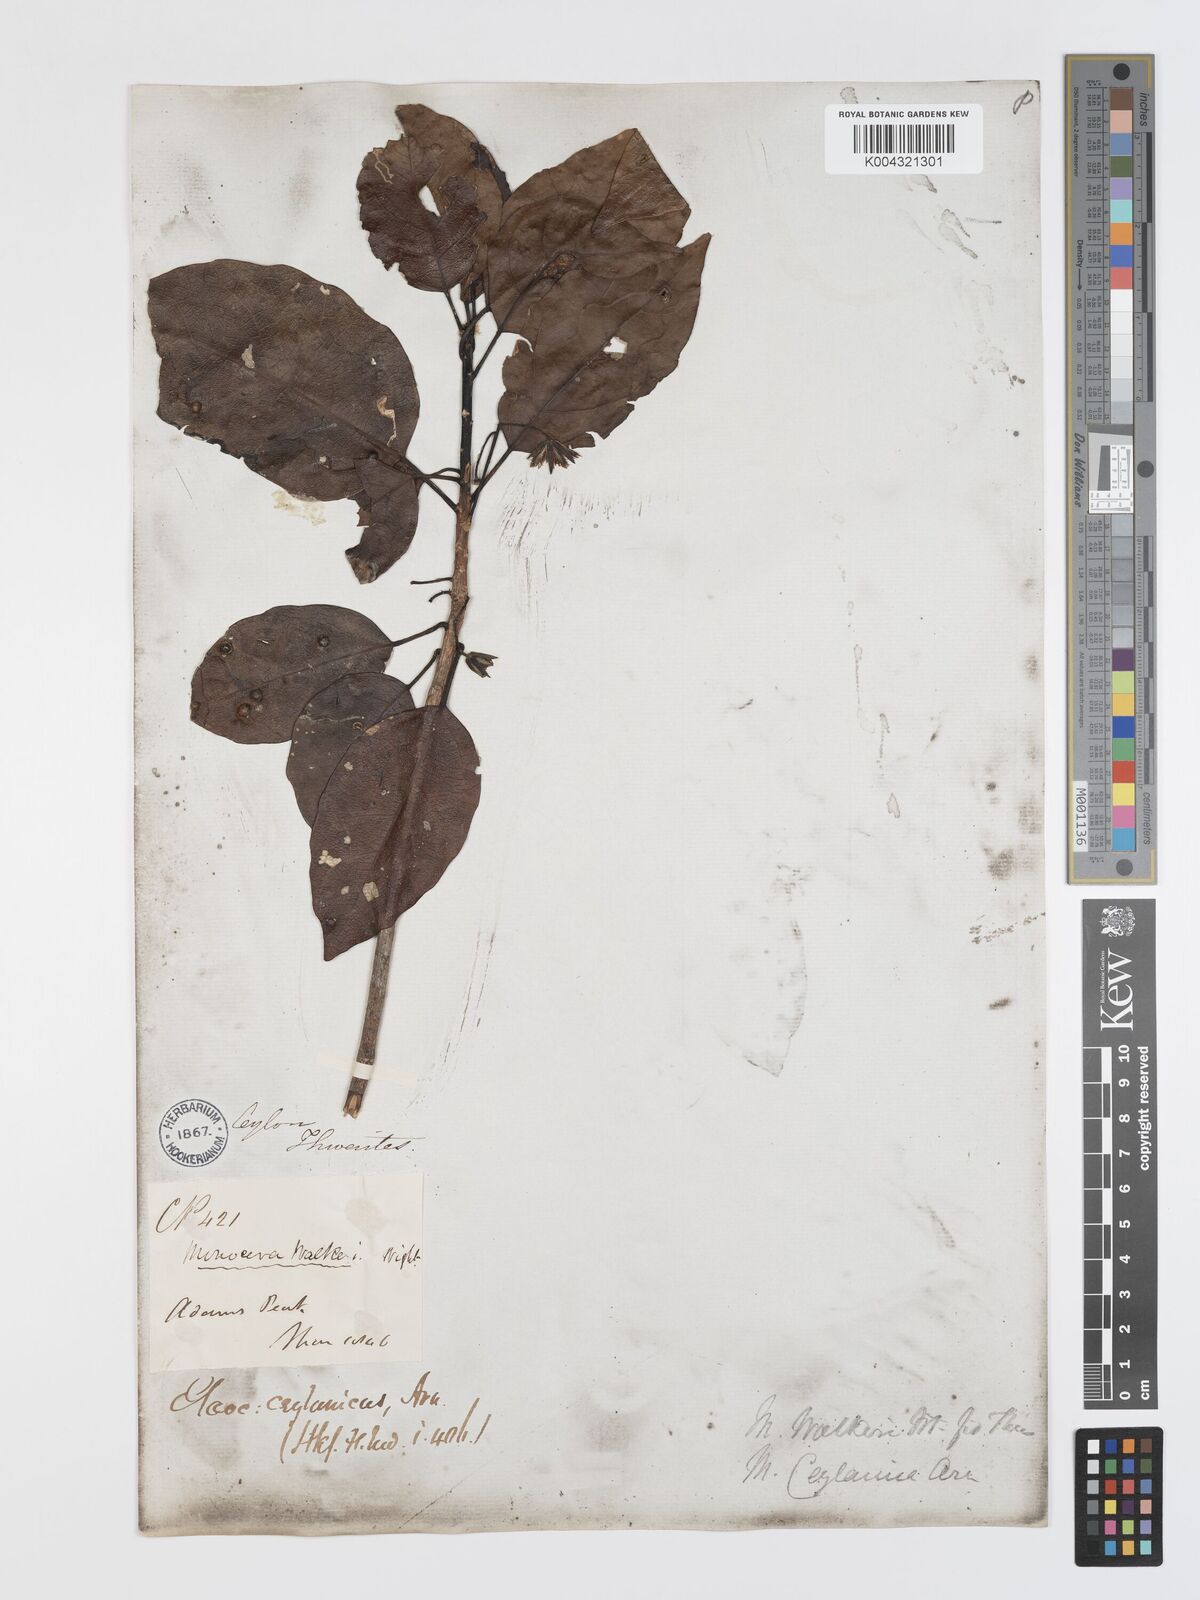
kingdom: Plantae
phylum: Tracheophyta
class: Magnoliopsida
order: Oxalidales
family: Elaeocarpaceae
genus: Elaeocarpus
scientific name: Elaeocarpus ceylanicus
